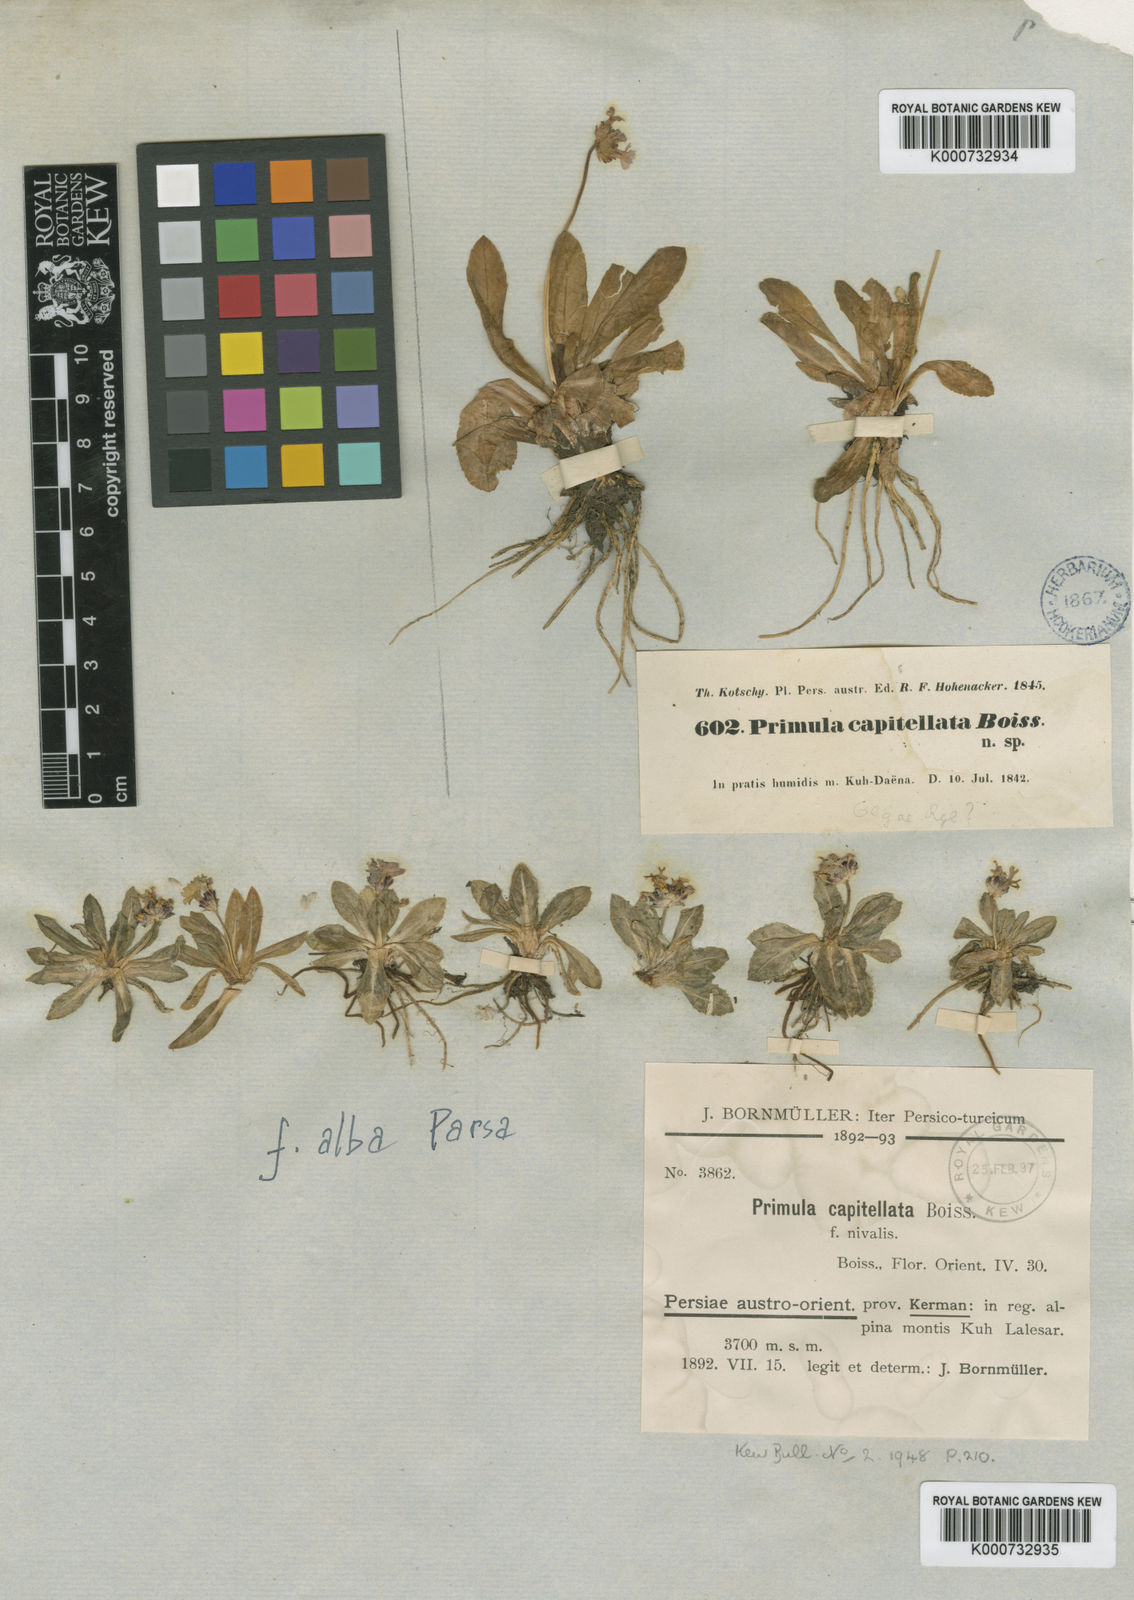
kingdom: Plantae
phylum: Tracheophyta
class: Magnoliopsida
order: Ericales
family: Primulaceae
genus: Primula
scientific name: Primula capitellata
